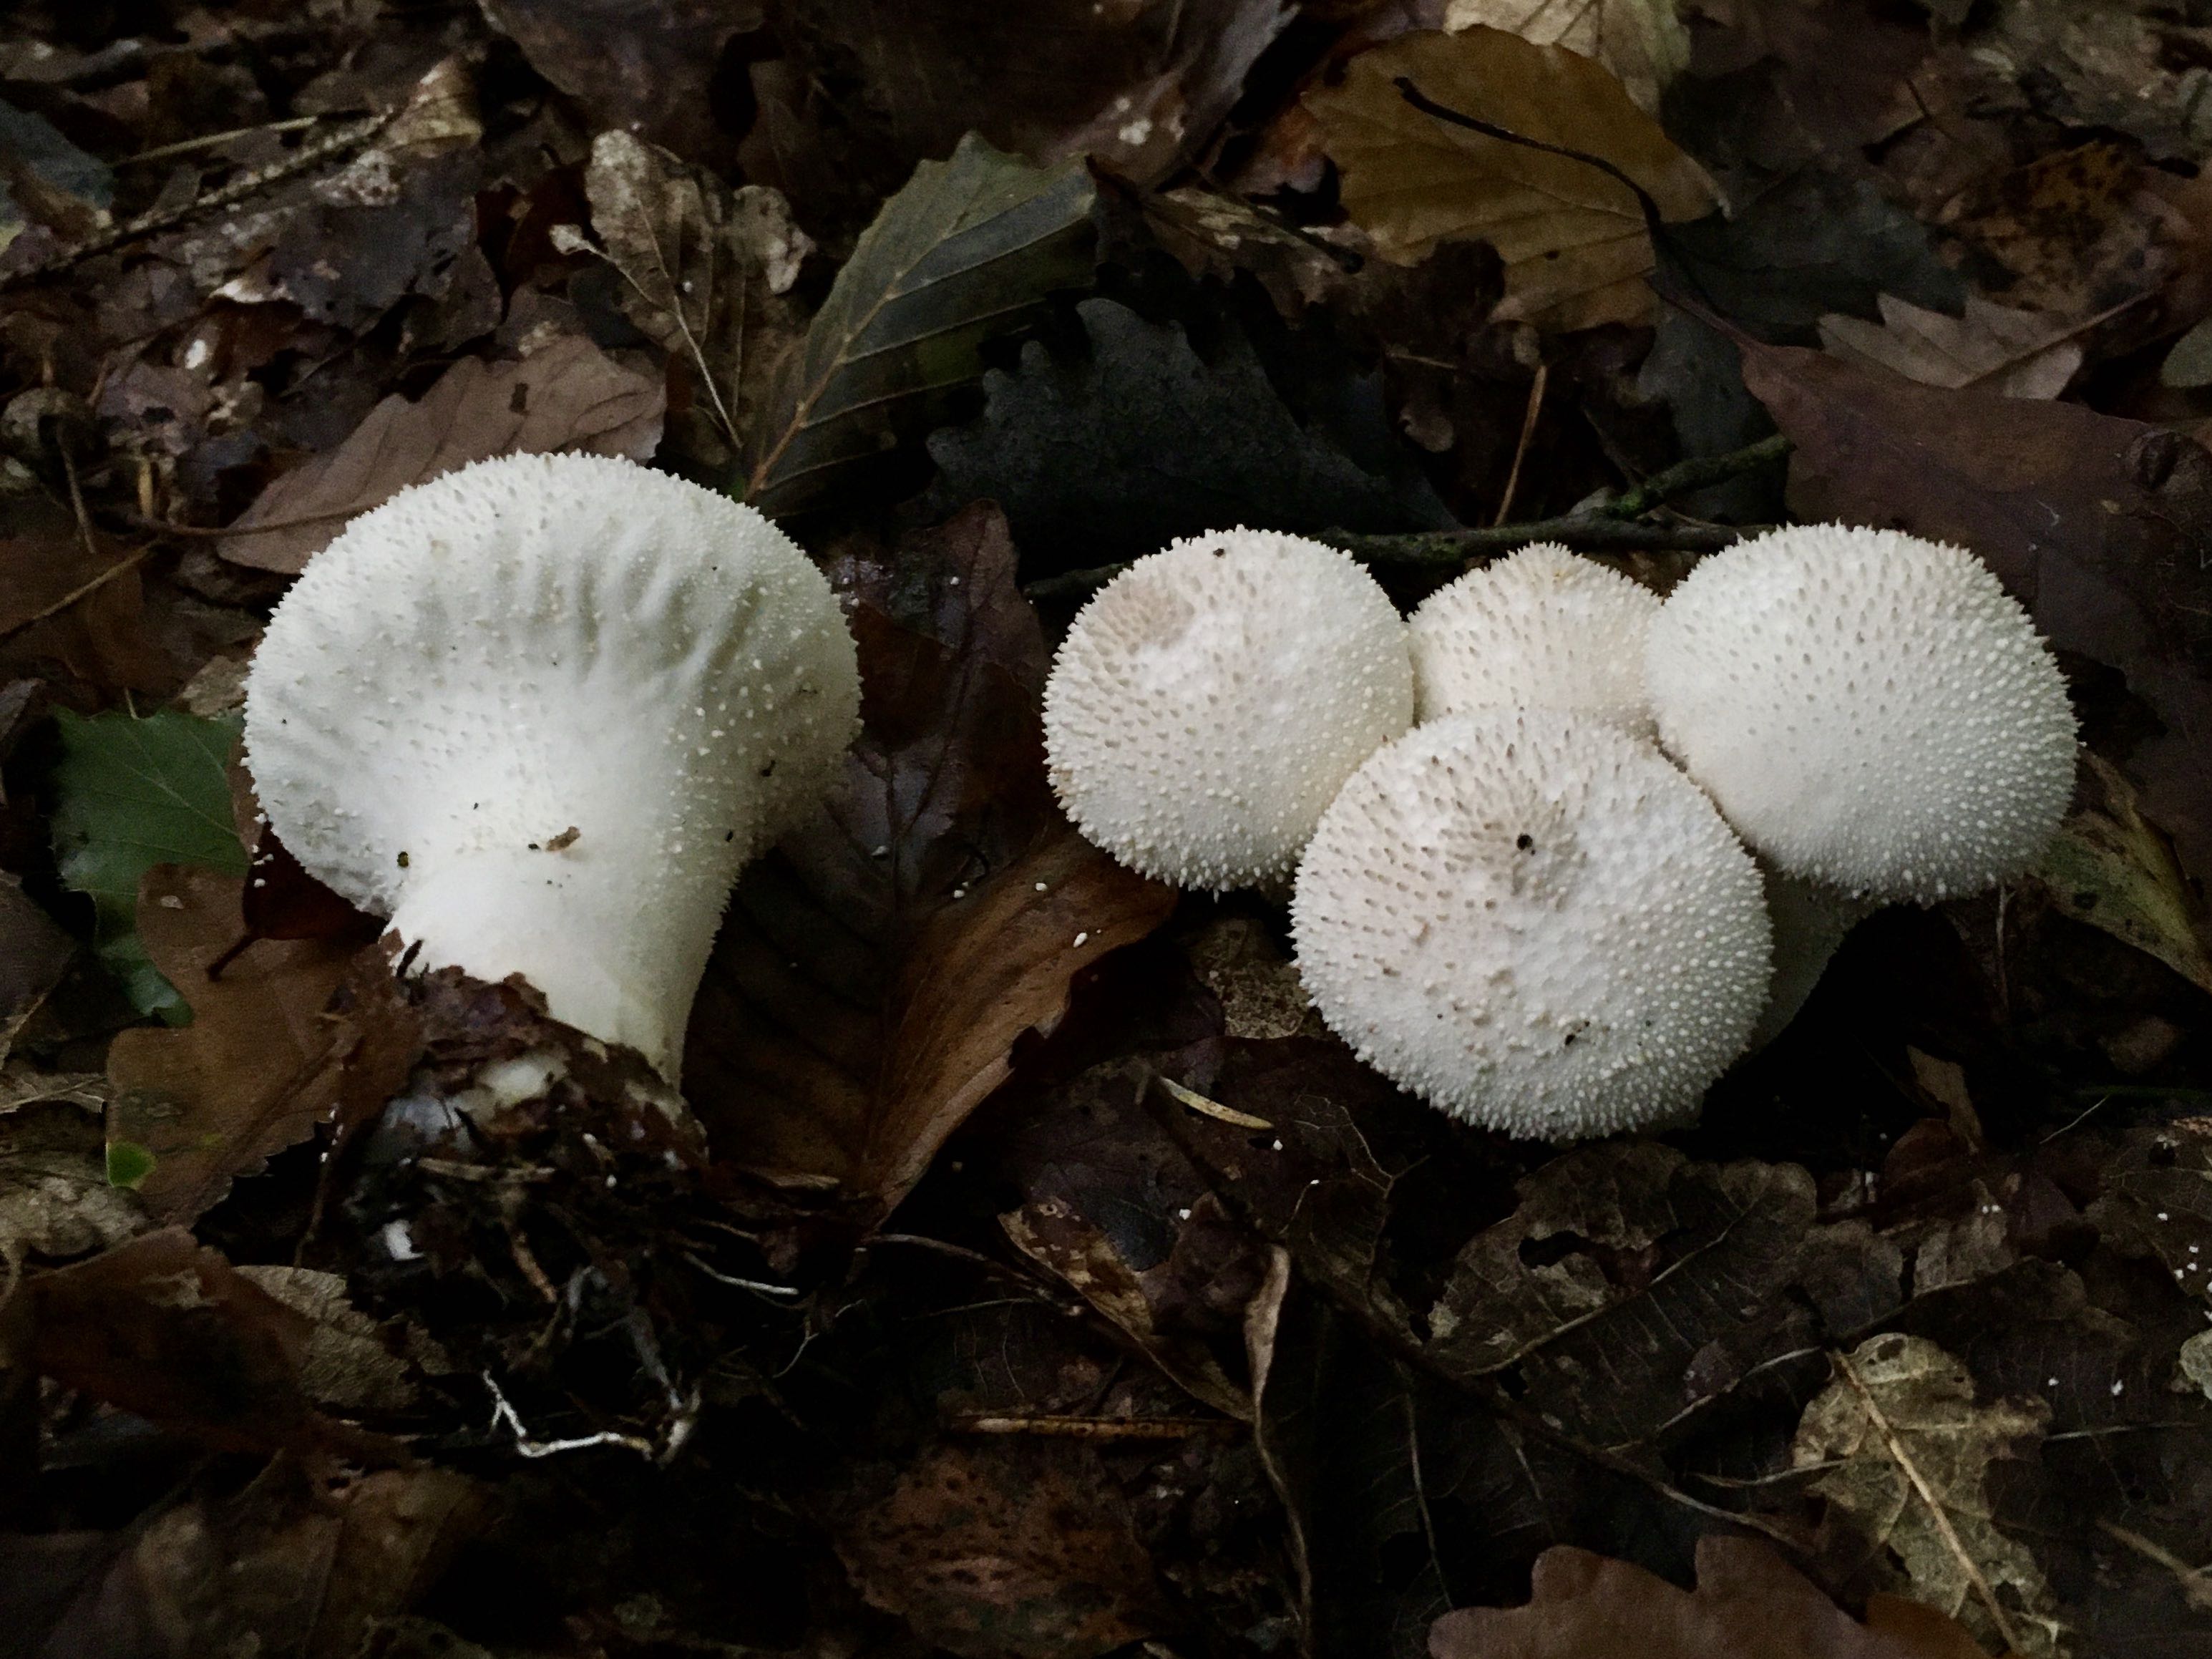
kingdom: Fungi
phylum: Basidiomycota
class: Agaricomycetes
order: Agaricales
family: Lycoperdaceae
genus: Lycoperdon
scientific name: Lycoperdon perlatum
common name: krystal-støvbold
